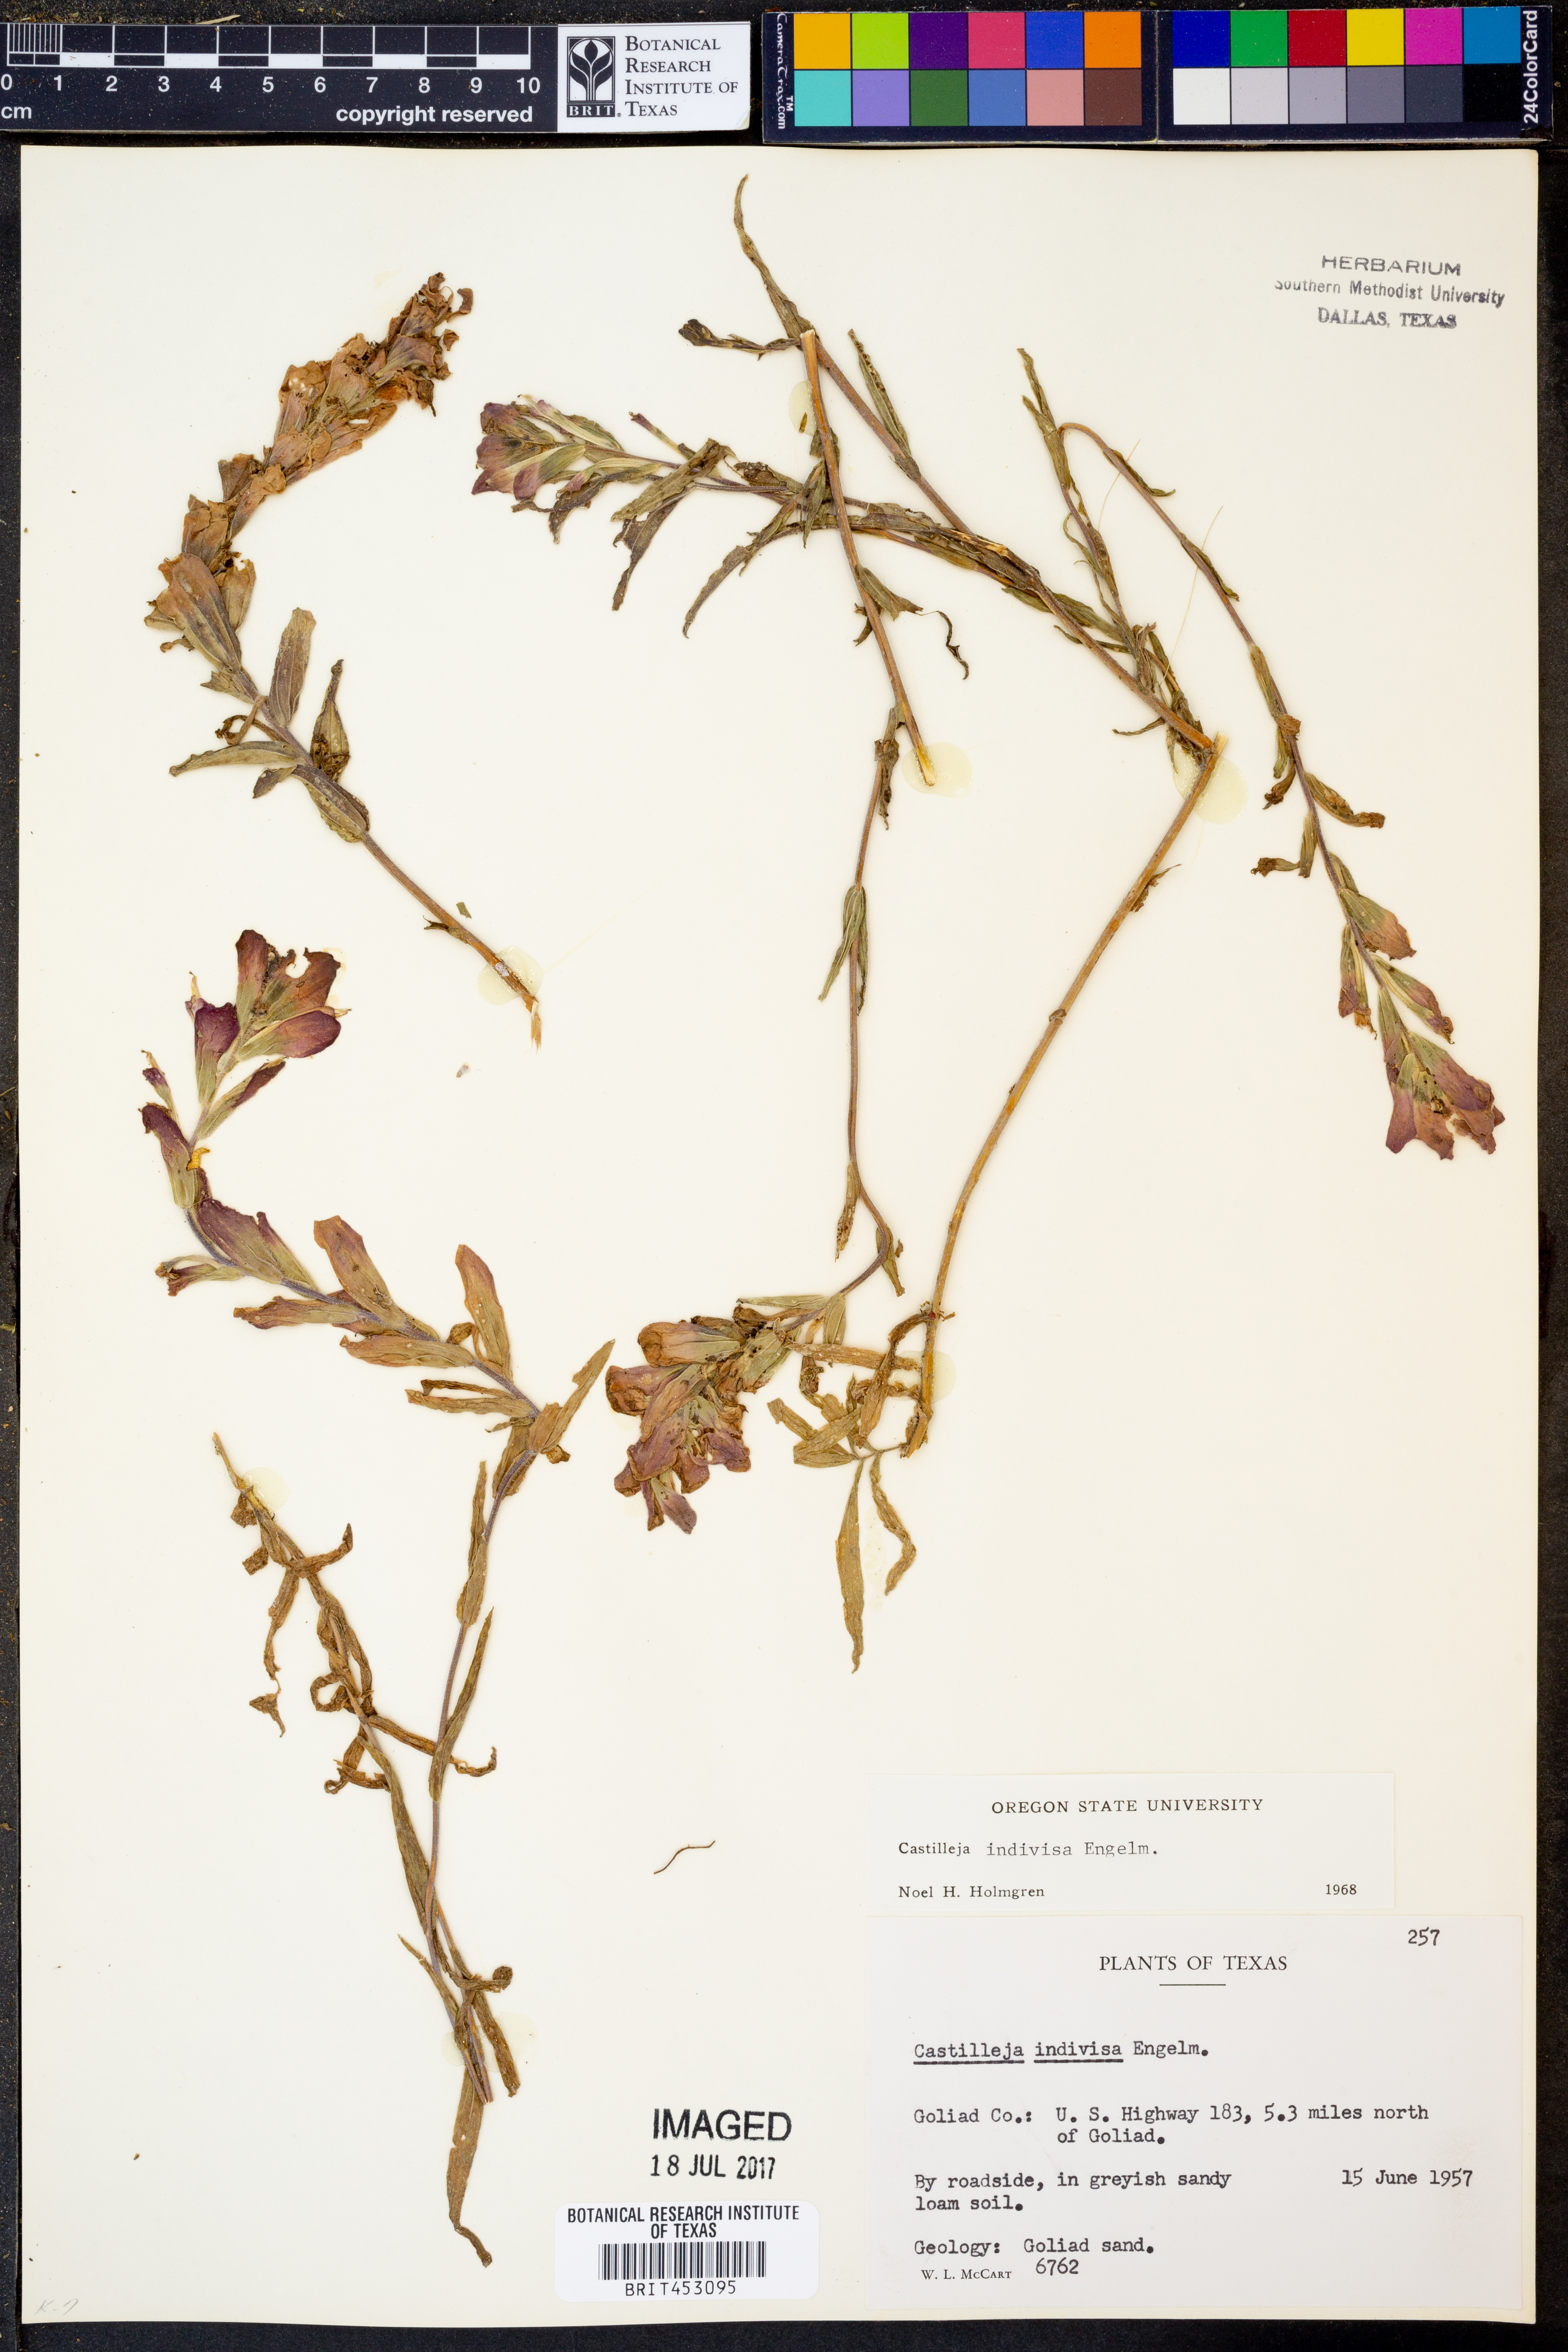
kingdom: Plantae
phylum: Tracheophyta
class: Magnoliopsida
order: Lamiales
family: Orobanchaceae
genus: Castilleja
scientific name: Castilleja indivisa
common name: Texas paintbrush
